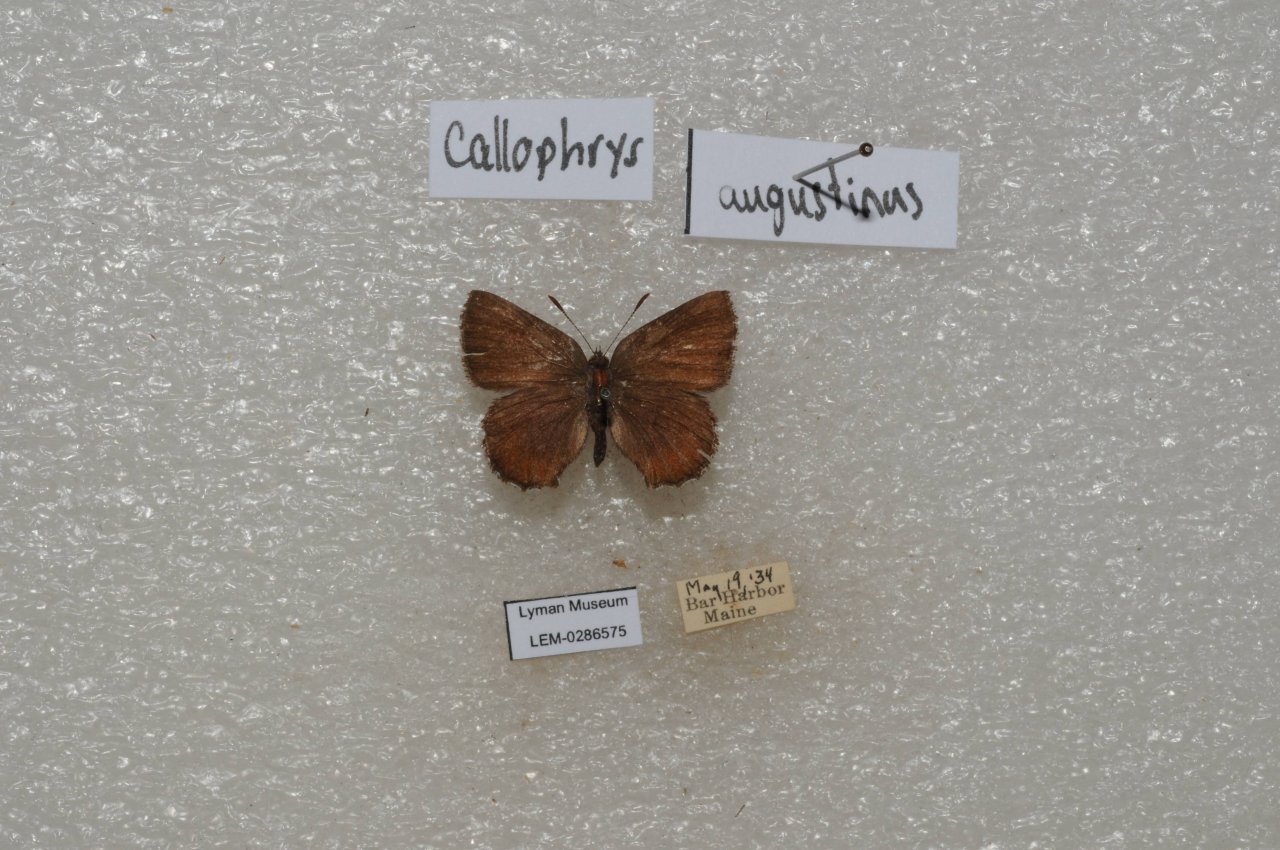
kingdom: Animalia
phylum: Arthropoda
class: Insecta
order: Lepidoptera
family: Lycaenidae
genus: Incisalia
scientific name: Incisalia irioides
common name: Brown Elfin
